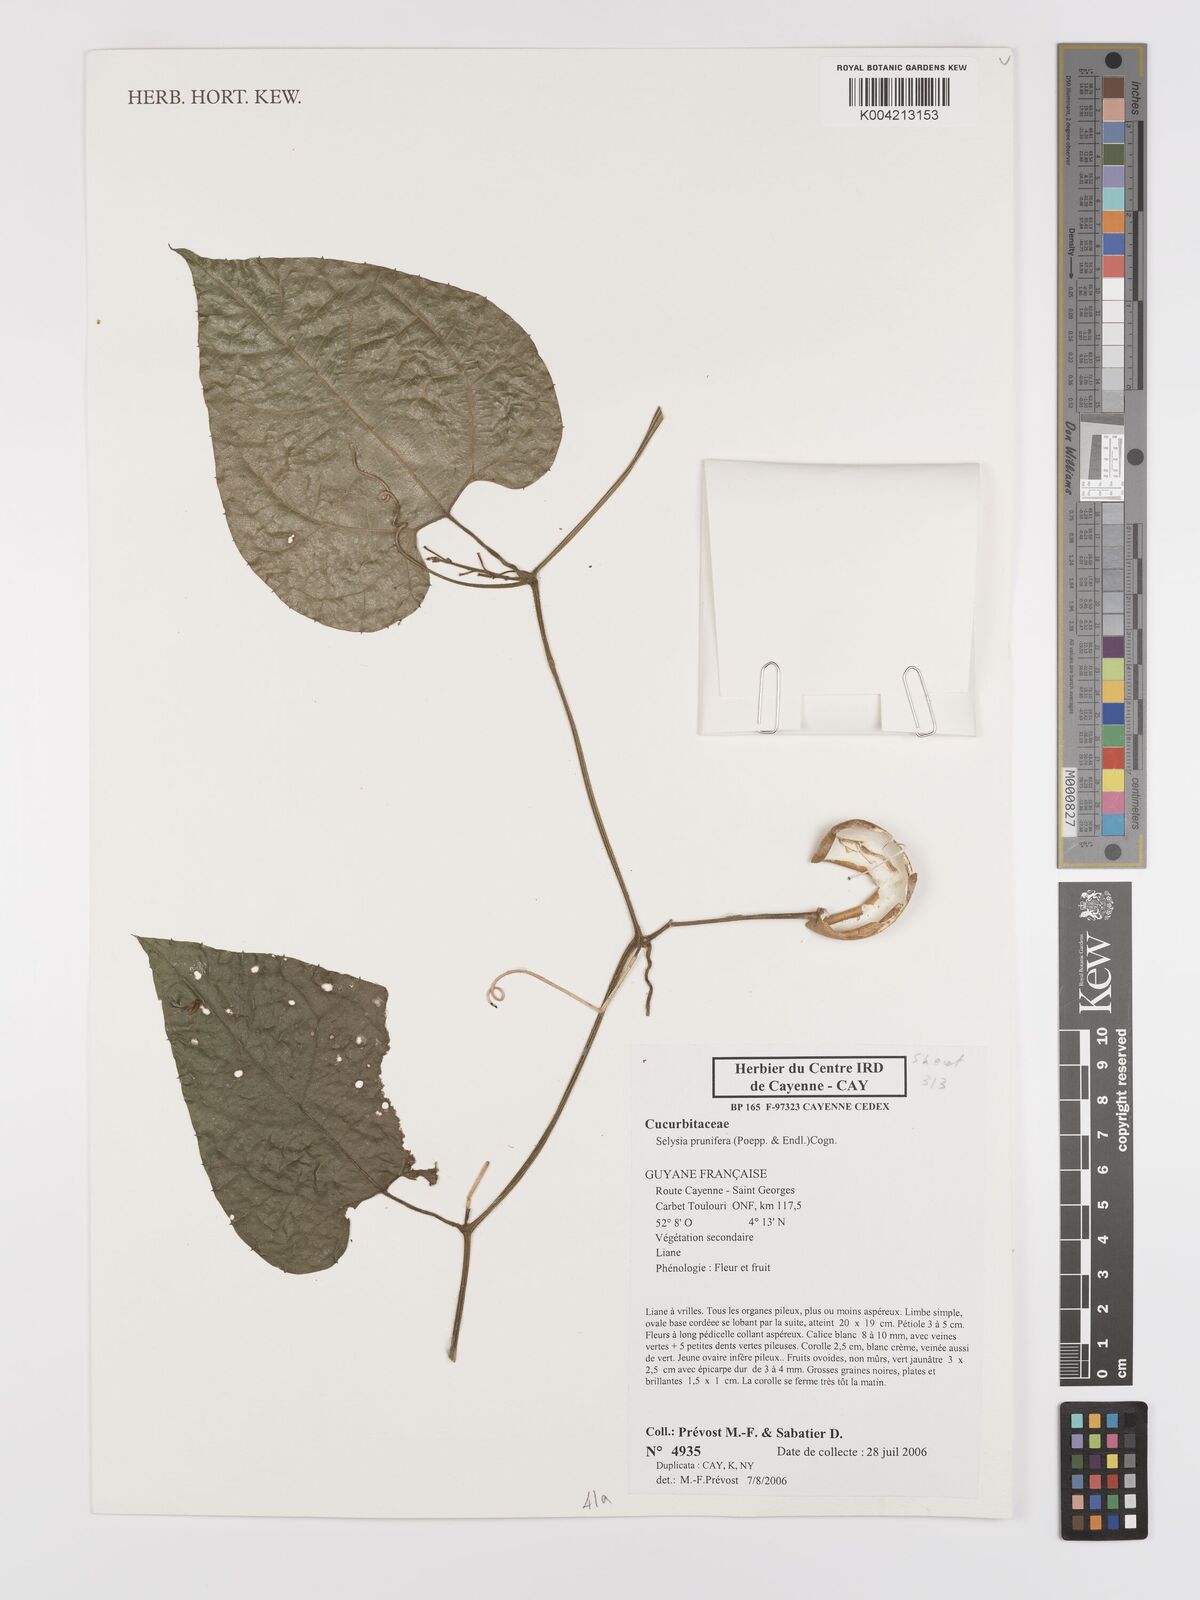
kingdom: Plantae
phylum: Tracheophyta
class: Magnoliopsida
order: Cucurbitales
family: Cucurbitaceae
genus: Cayaponia
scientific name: Cayaponia prunifera
